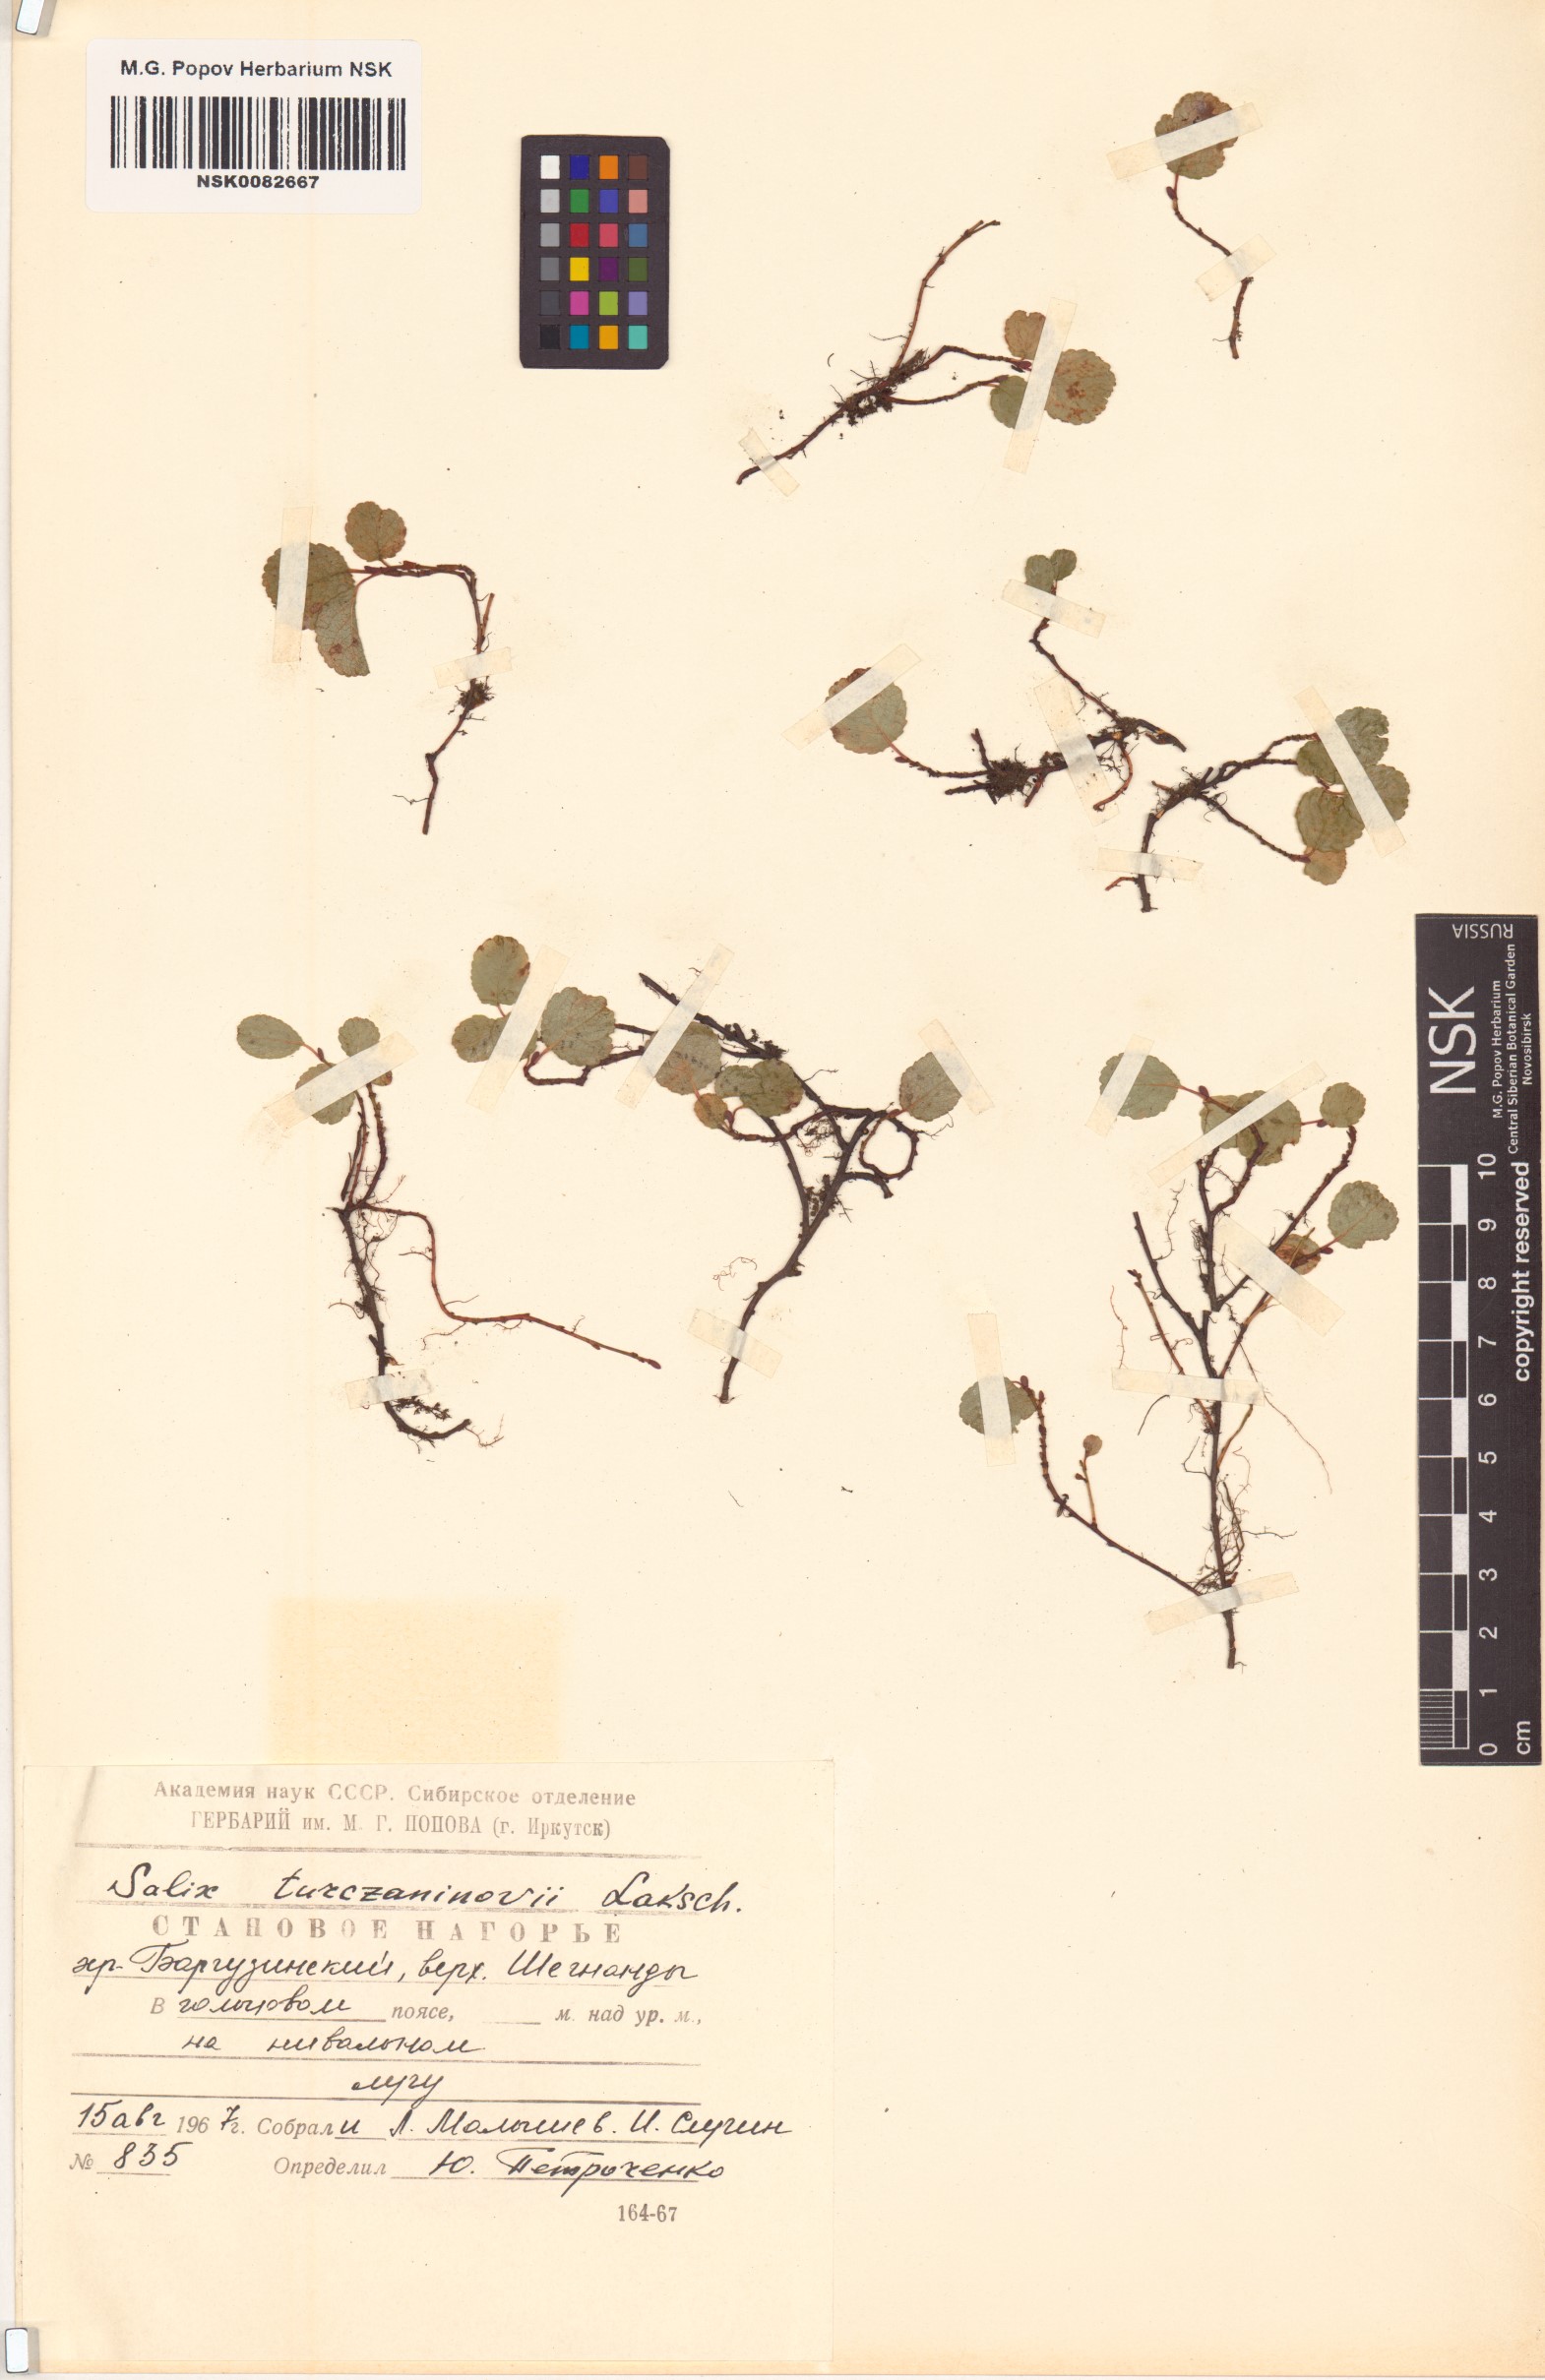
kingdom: Plantae
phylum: Tracheophyta
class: Magnoliopsida
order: Malpighiales
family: Salicaceae
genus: Salix
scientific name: Salix turczaninowii
